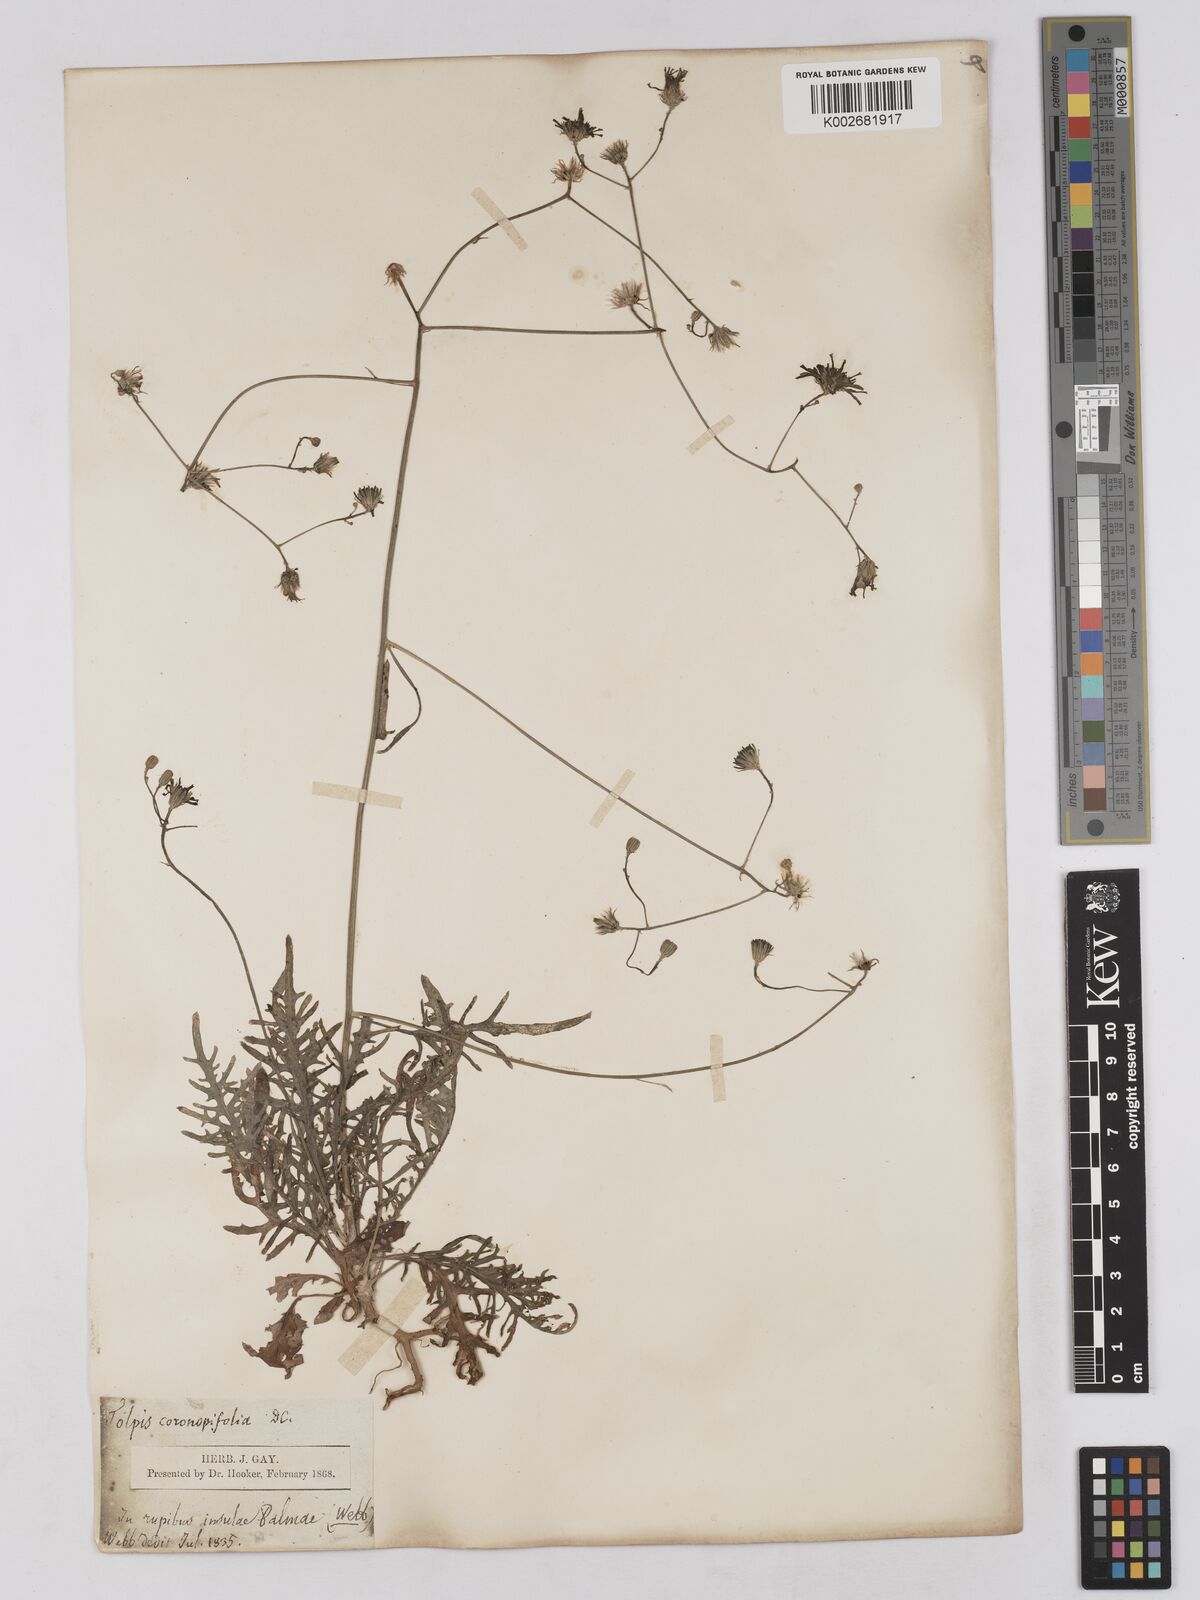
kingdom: Plantae
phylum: Tracheophyta
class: Magnoliopsida
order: Asterales
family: Asteraceae
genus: Tolpis
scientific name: Tolpis laciniata
